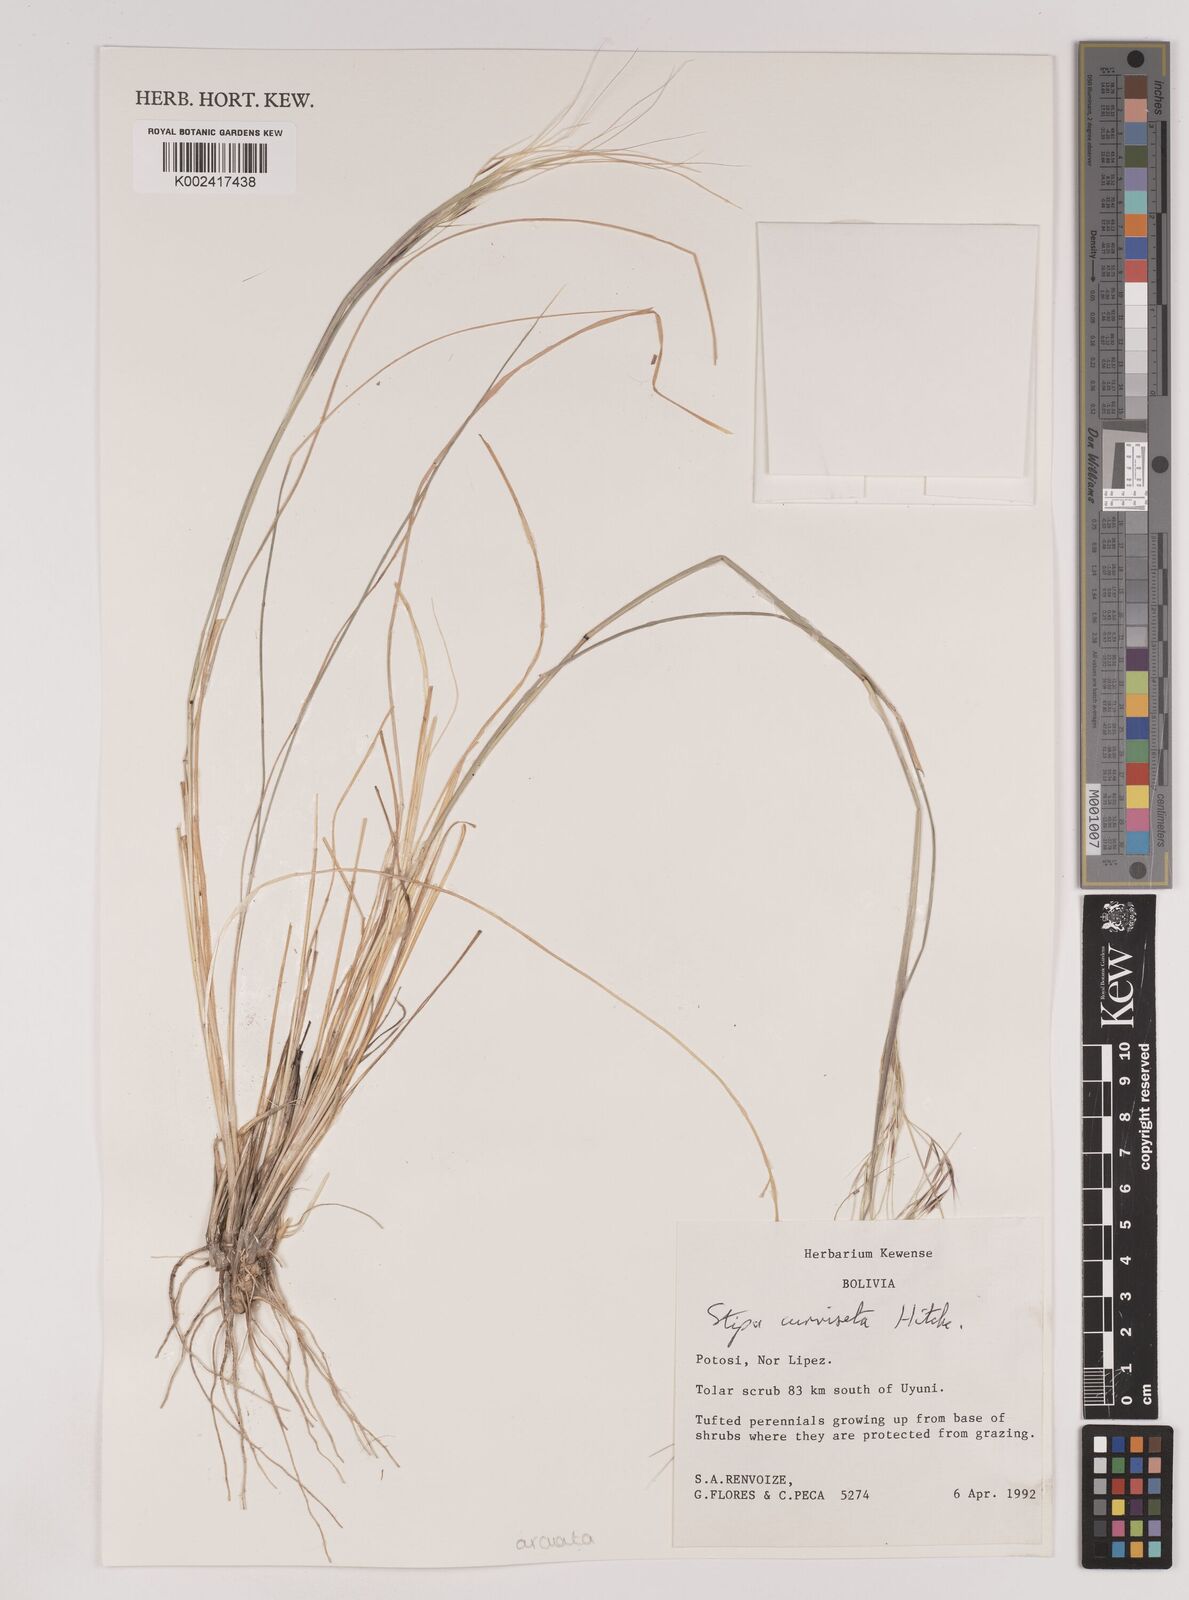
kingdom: Plantae
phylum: Tracheophyta
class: Liliopsida
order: Poales
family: Poaceae
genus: Nassella
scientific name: Nassella arcuata
